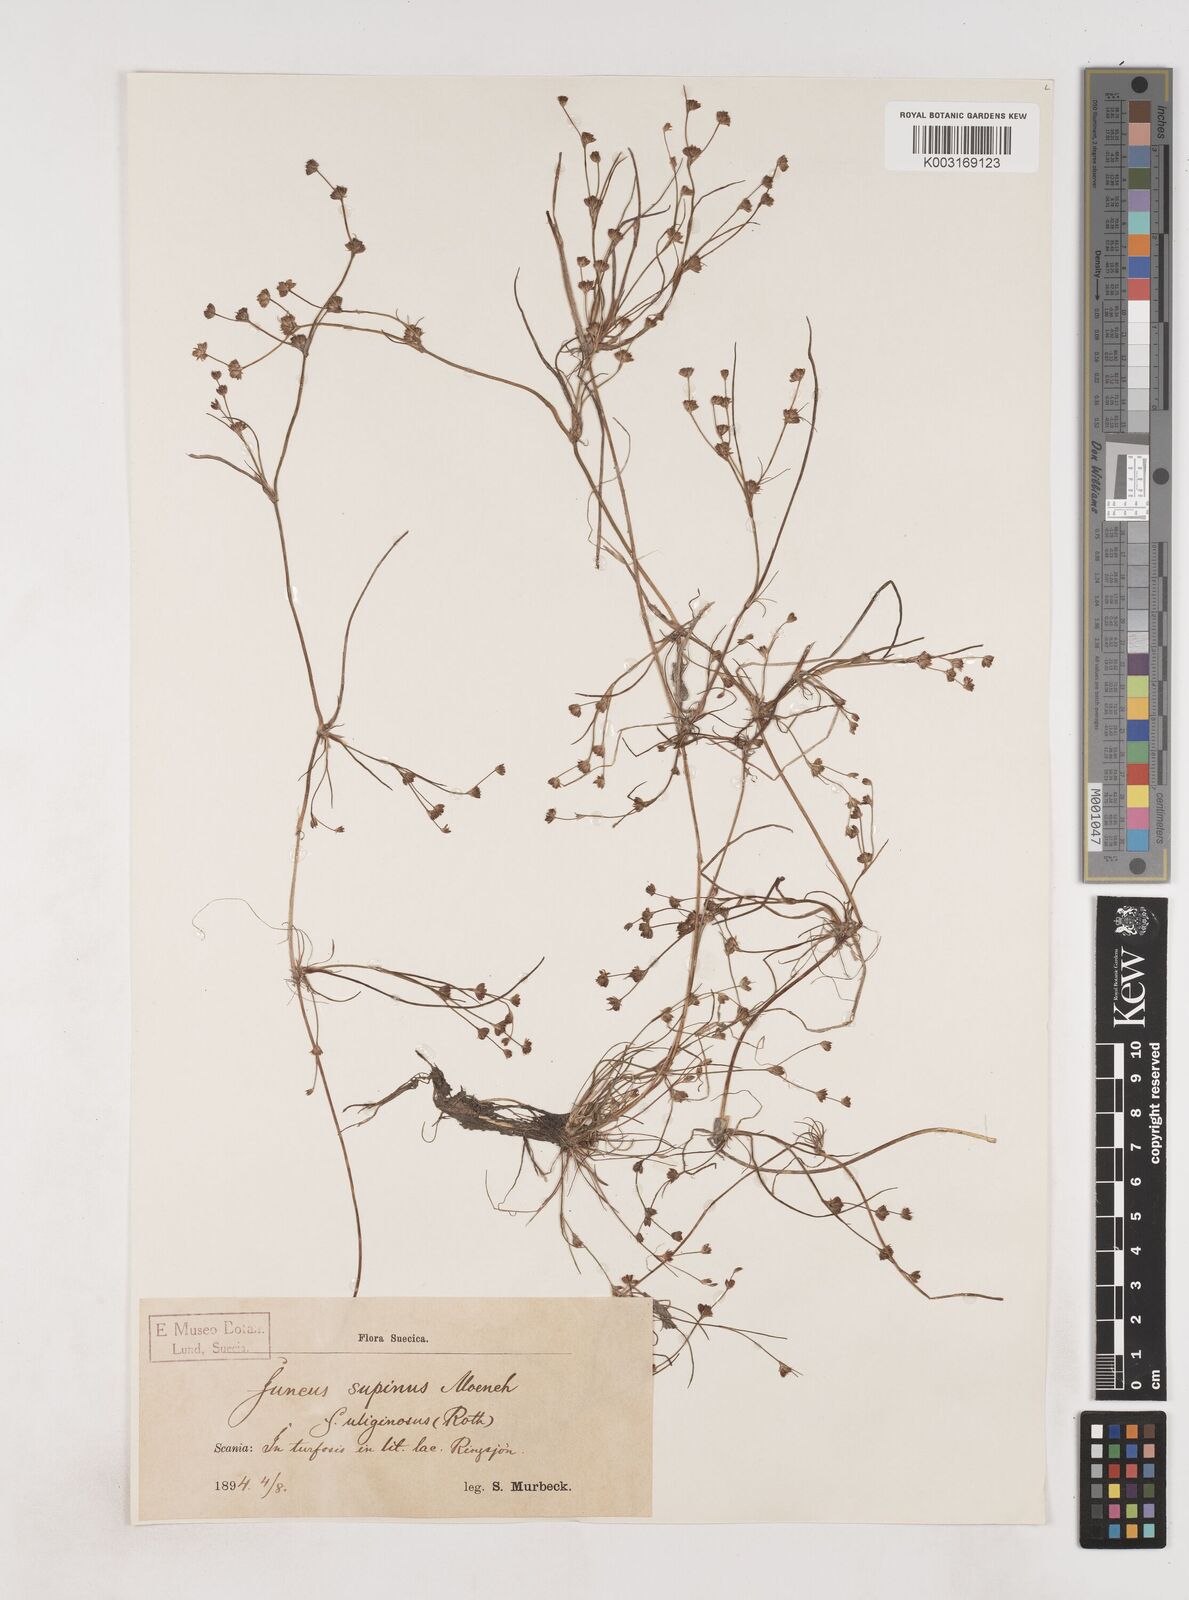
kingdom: Plantae
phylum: Tracheophyta
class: Liliopsida
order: Poales
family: Juncaceae
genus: Juncus
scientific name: Juncus bulbosus
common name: Bulbous rush
